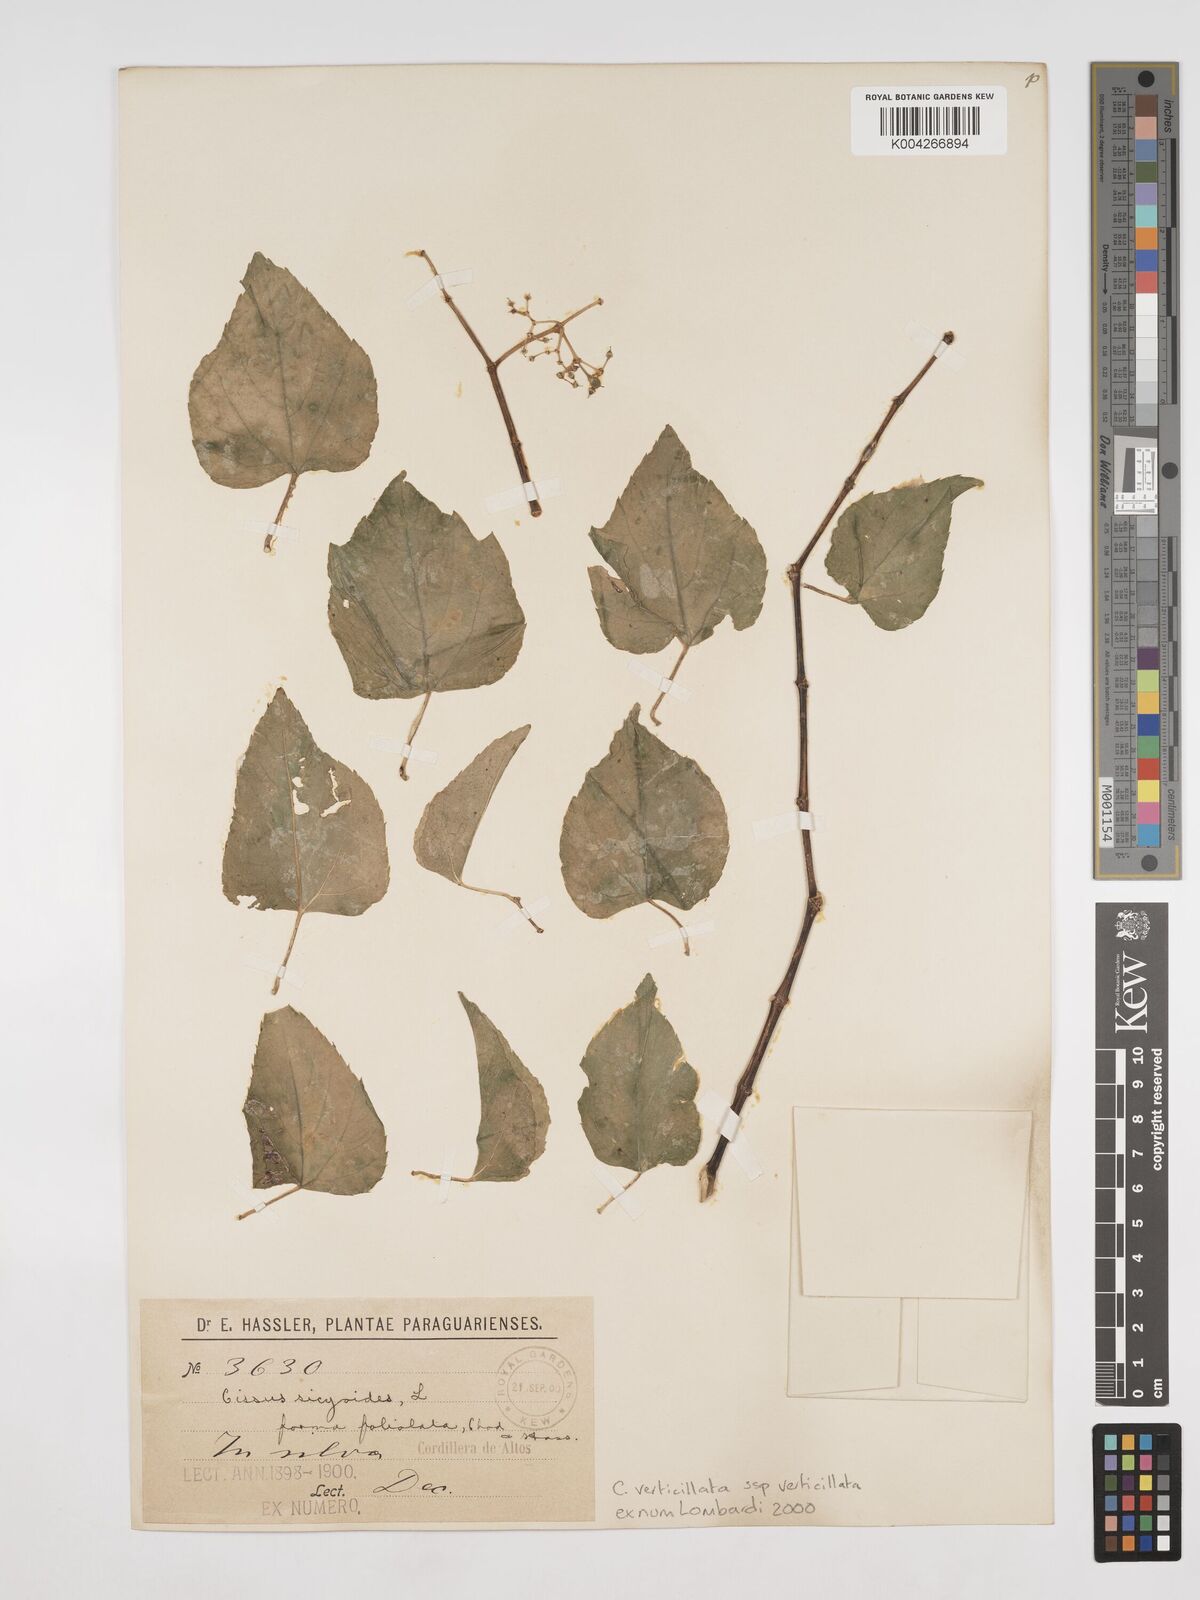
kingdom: Plantae
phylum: Tracheophyta
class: Magnoliopsida
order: Vitales
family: Vitaceae
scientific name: Vitaceae
